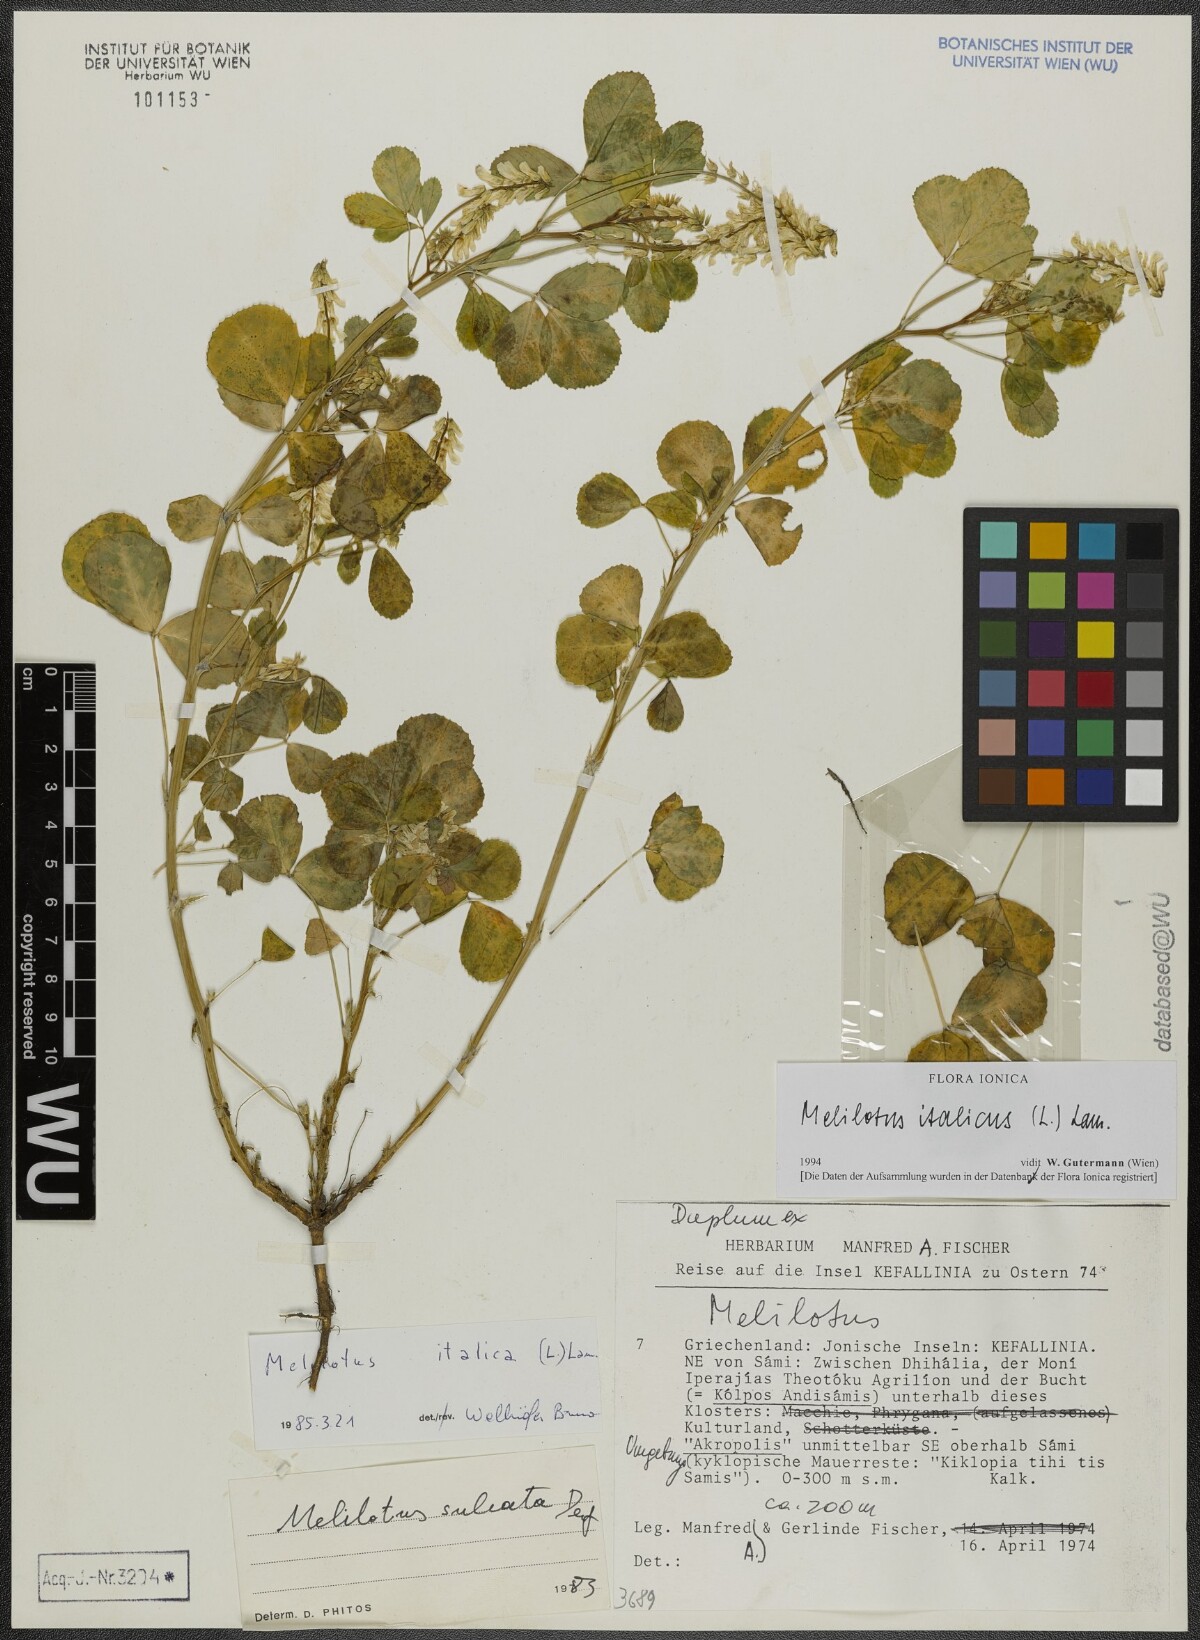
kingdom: Plantae
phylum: Tracheophyta
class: Magnoliopsida
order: Fabales
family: Fabaceae
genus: Melilotus
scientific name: Melilotus italicus
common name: Italian melilot
